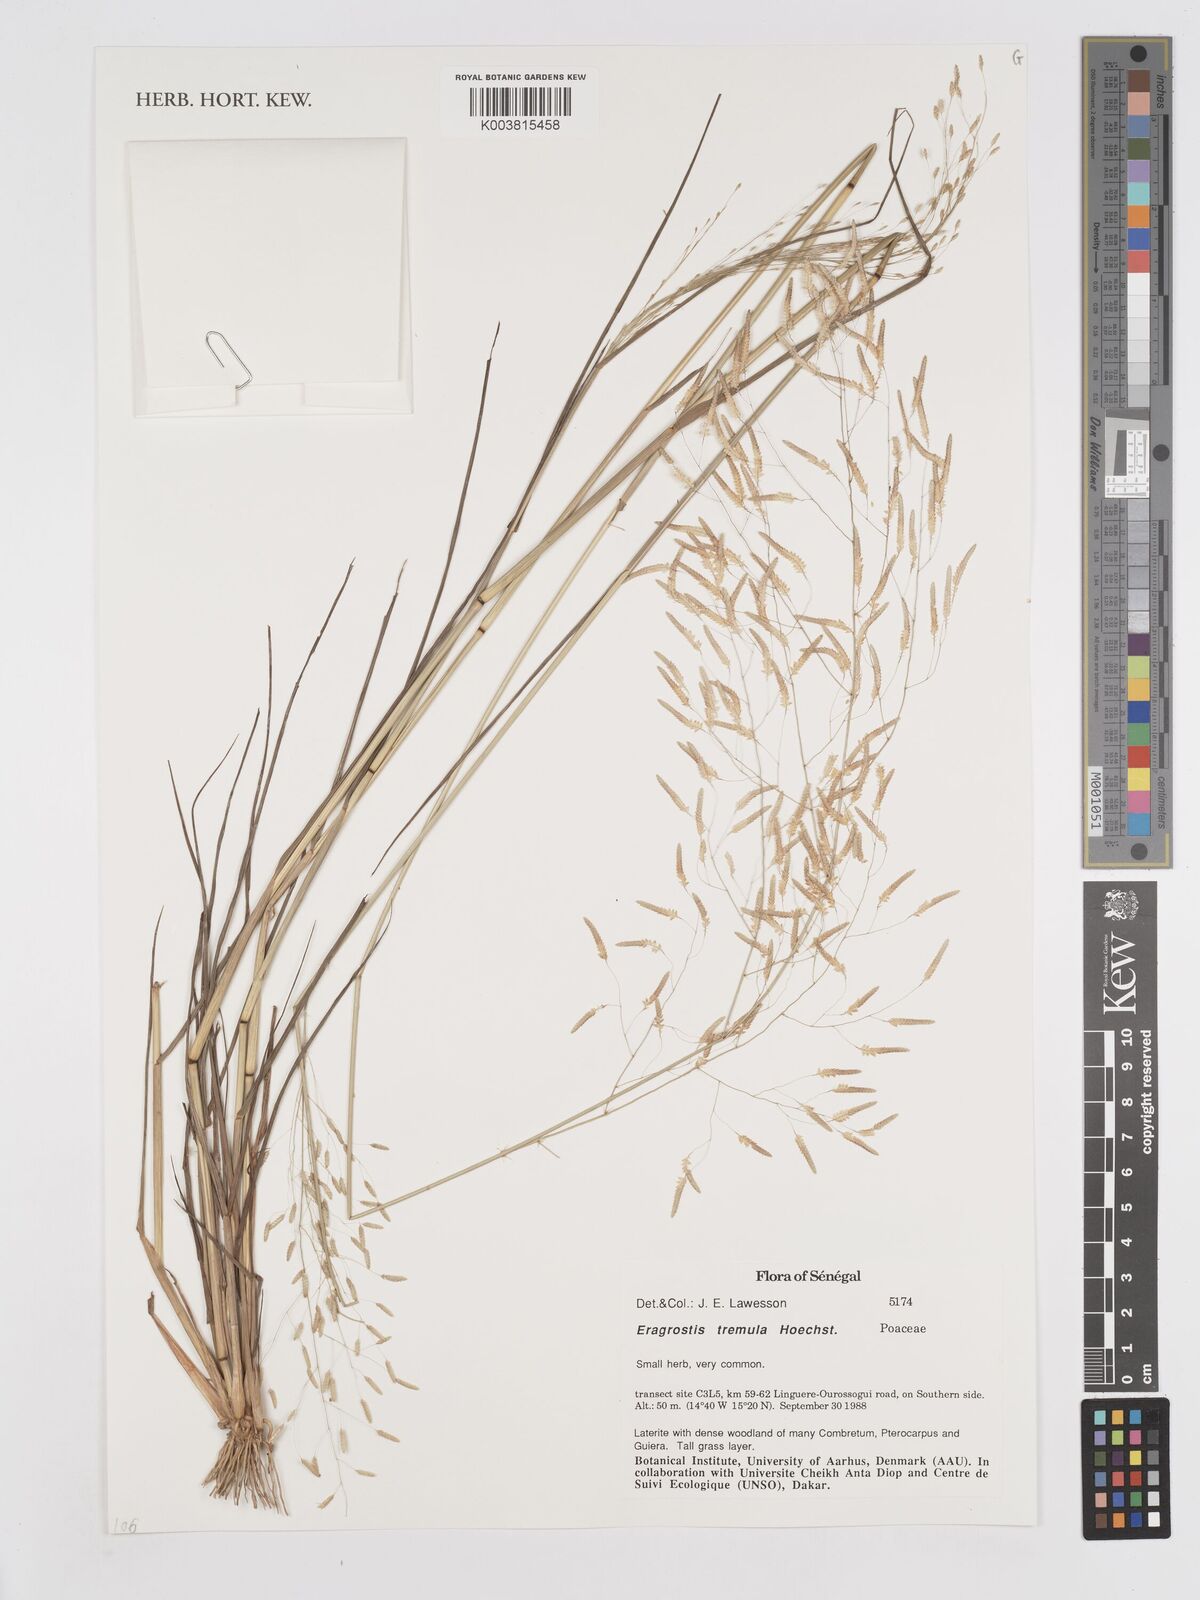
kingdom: Plantae
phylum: Tracheophyta
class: Liliopsida
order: Poales
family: Poaceae
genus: Eragrostis
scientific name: Eragrostis tremula
